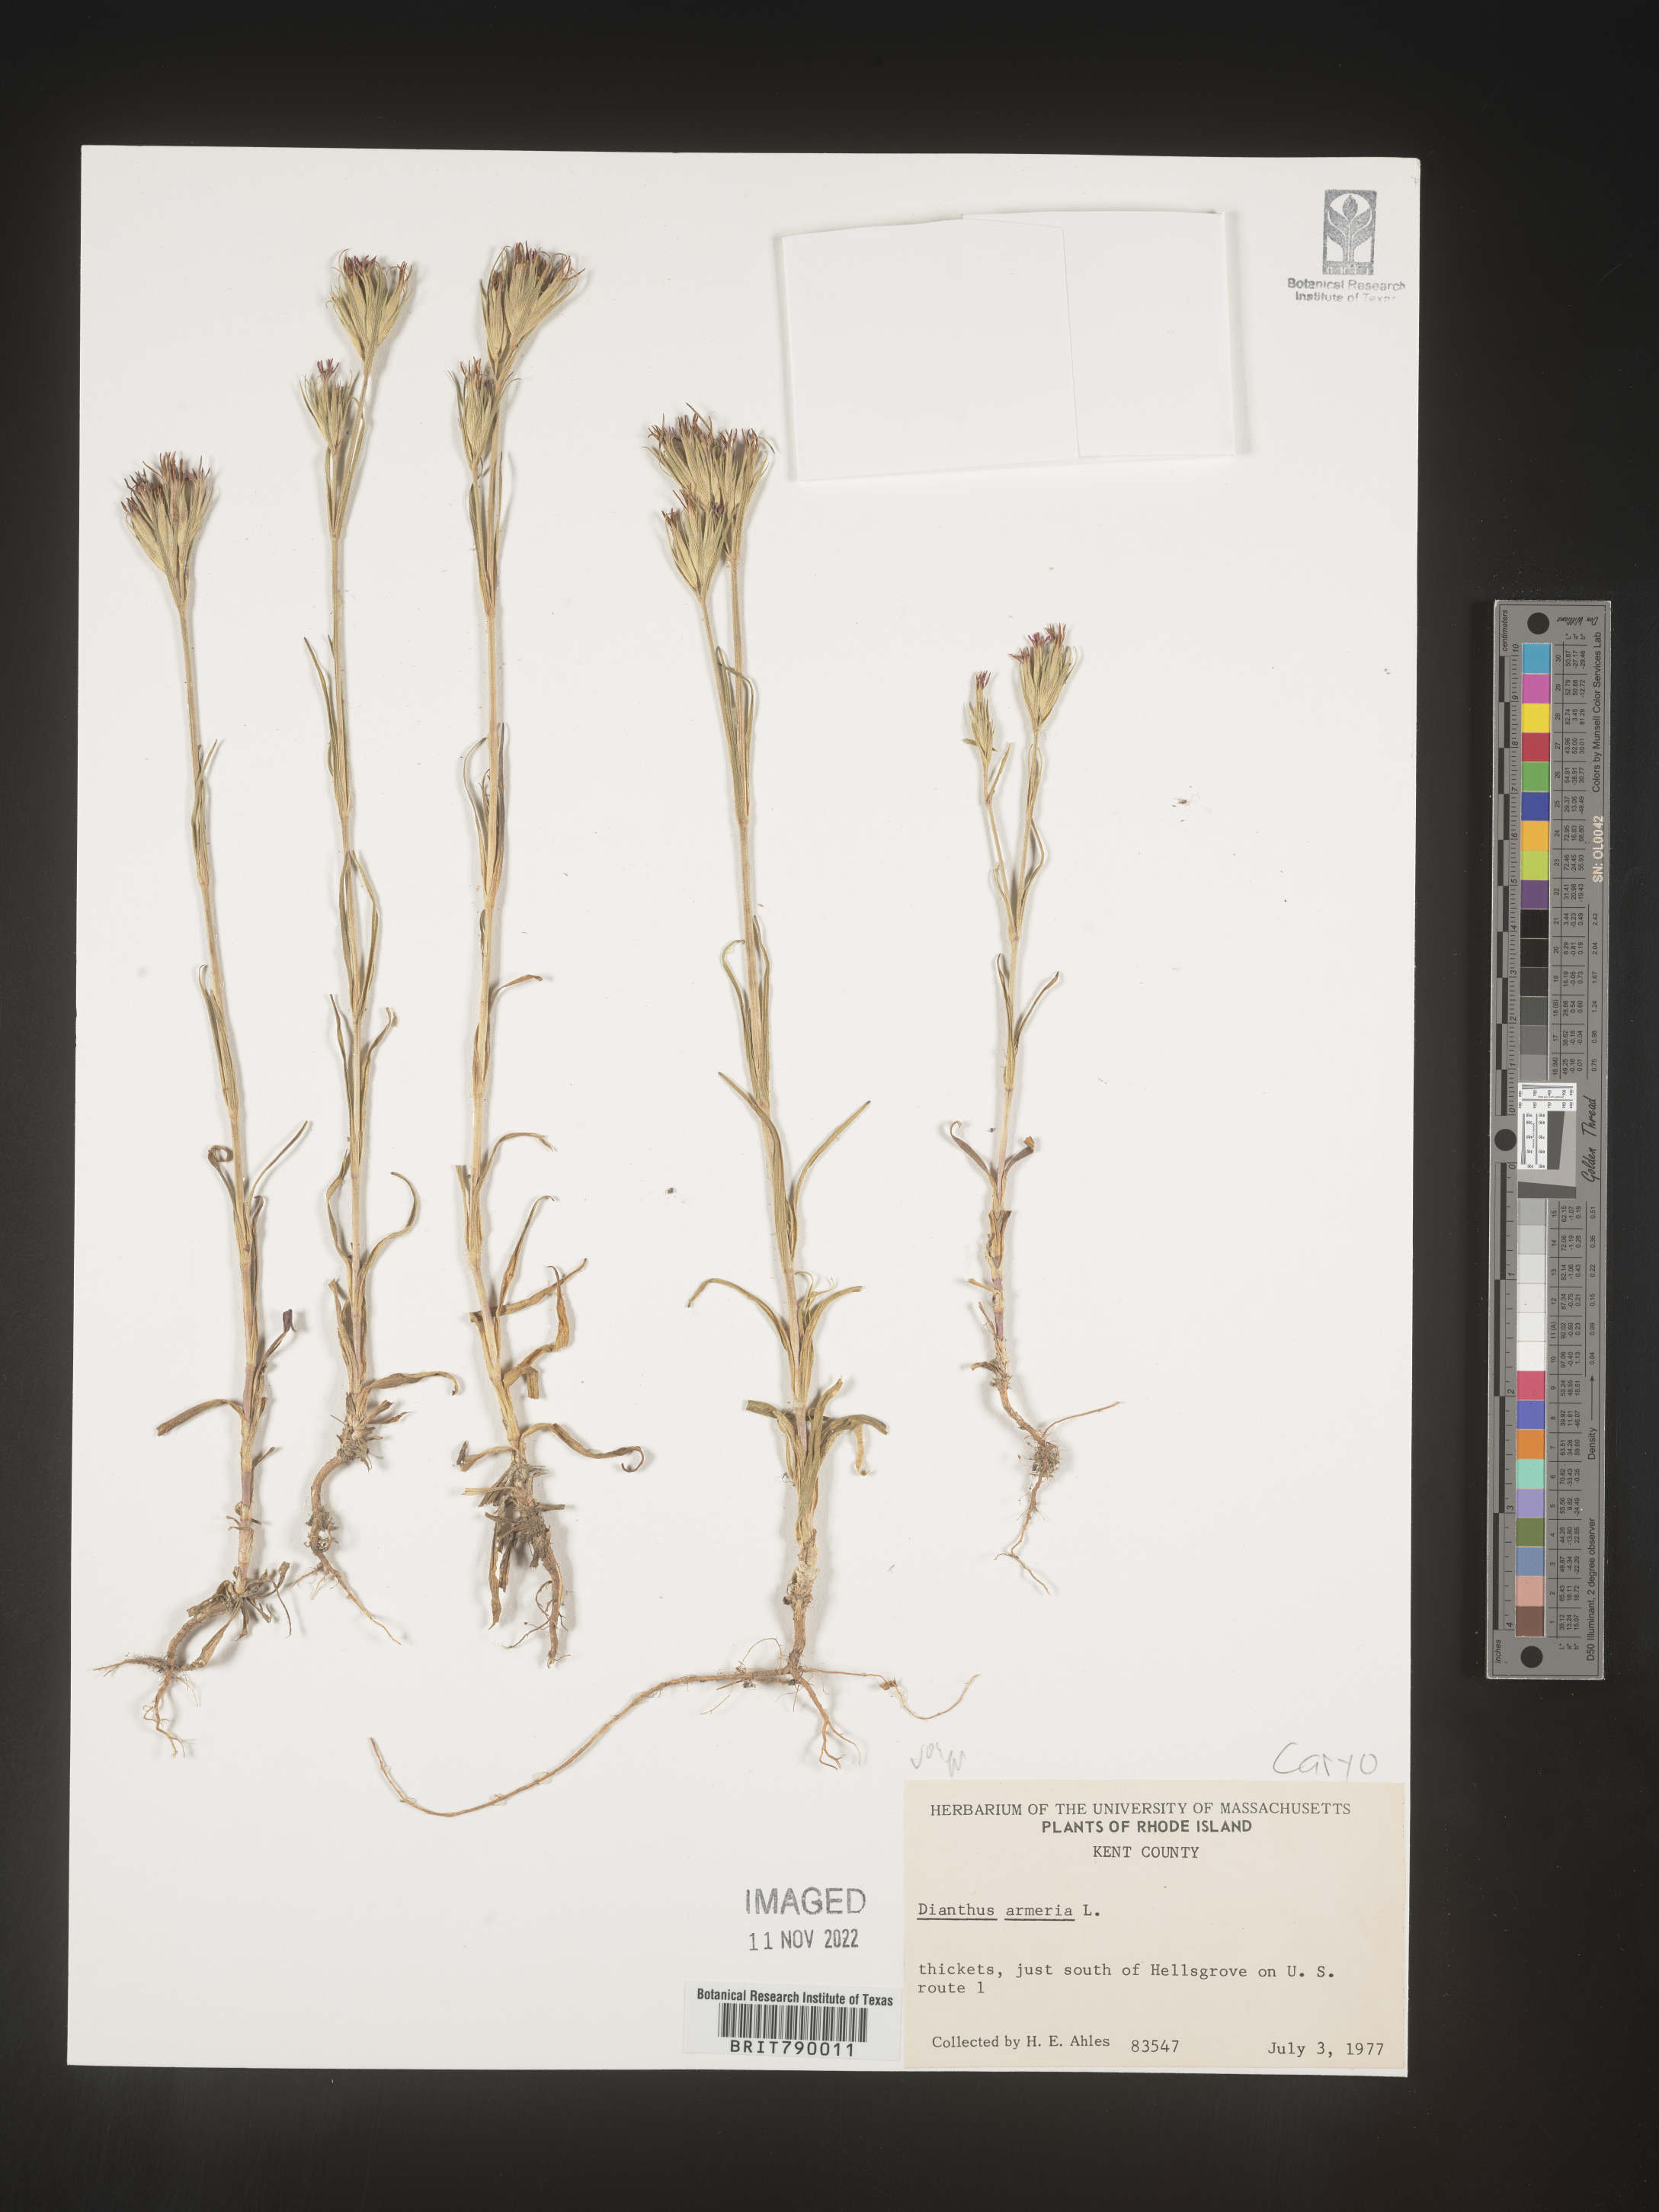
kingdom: Plantae
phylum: Tracheophyta
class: Magnoliopsida
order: Caryophyllales
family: Caryophyllaceae
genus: Dianthus
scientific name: Dianthus armeria
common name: Deptford pink
